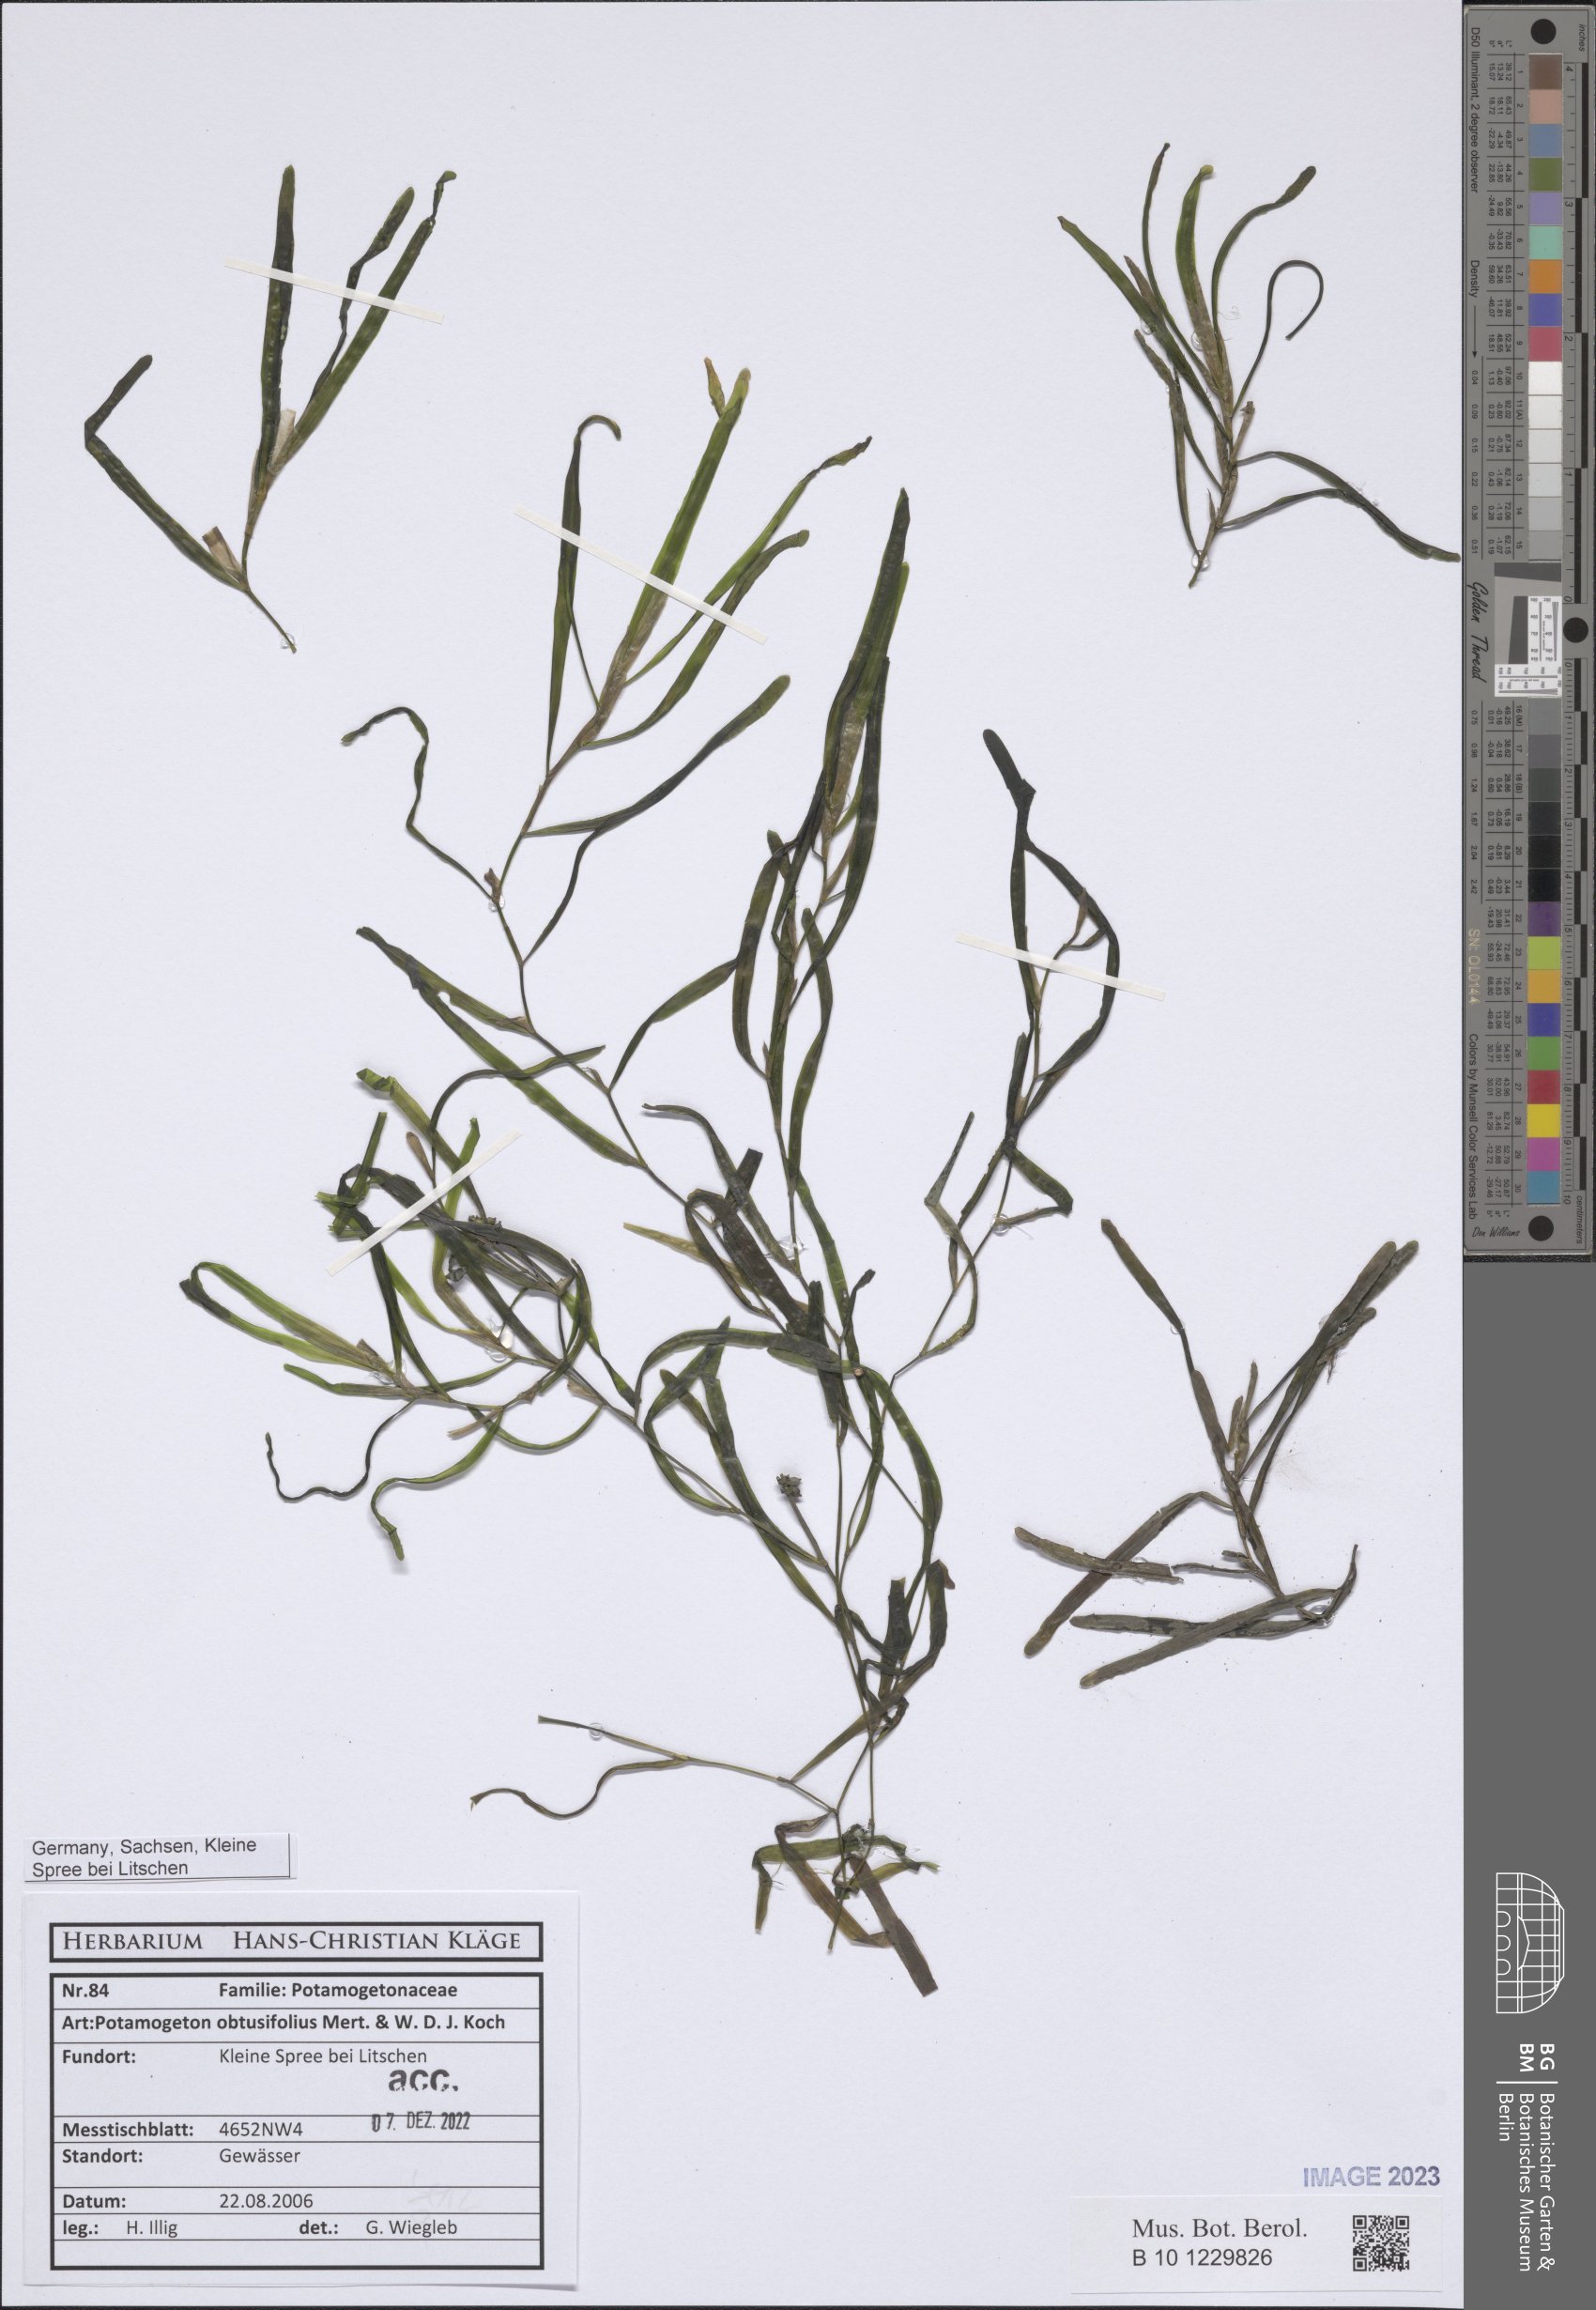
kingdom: Plantae
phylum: Tracheophyta
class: Liliopsida
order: Alismatales
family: Potamogetonaceae
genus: Potamogeton
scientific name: Potamogeton obtusifolius
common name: Blunt-leaved pondweed
